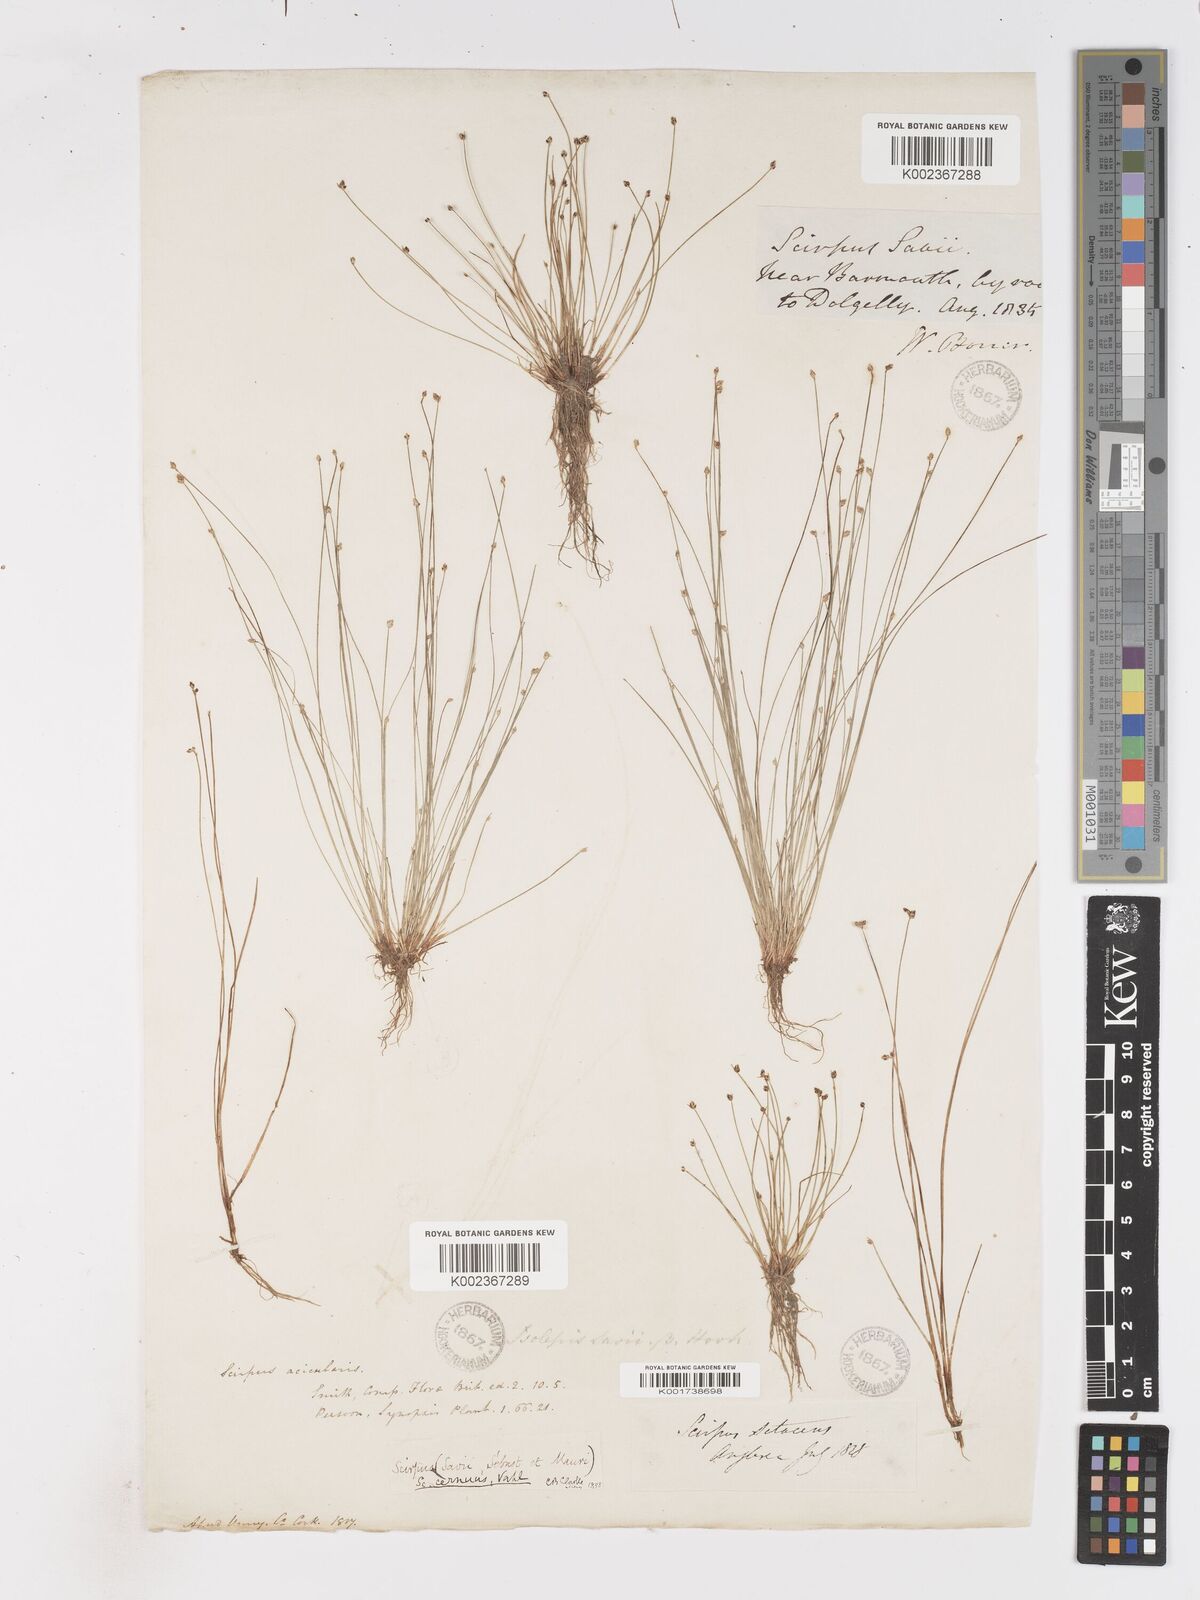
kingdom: Plantae
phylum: Tracheophyta
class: Liliopsida
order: Poales
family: Cyperaceae
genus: Isolepis
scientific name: Isolepis cernua
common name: Slender club-rush
